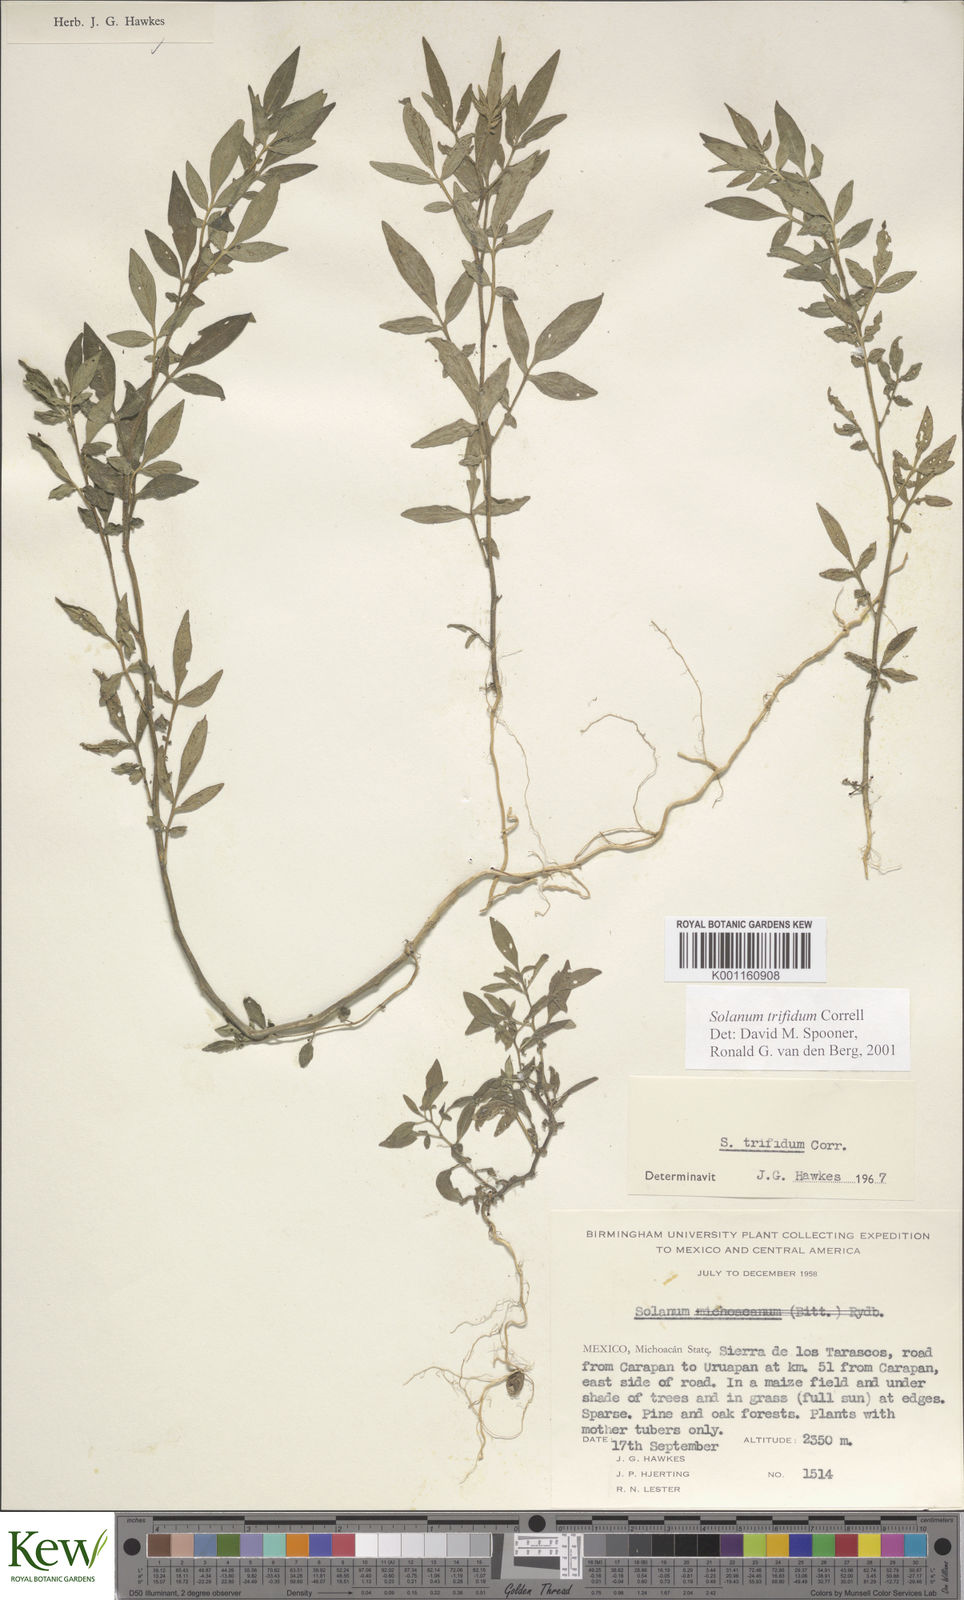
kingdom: Plantae
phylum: Tracheophyta
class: Magnoliopsida
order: Solanales
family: Solanaceae
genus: Solanum
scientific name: Solanum trifidum
